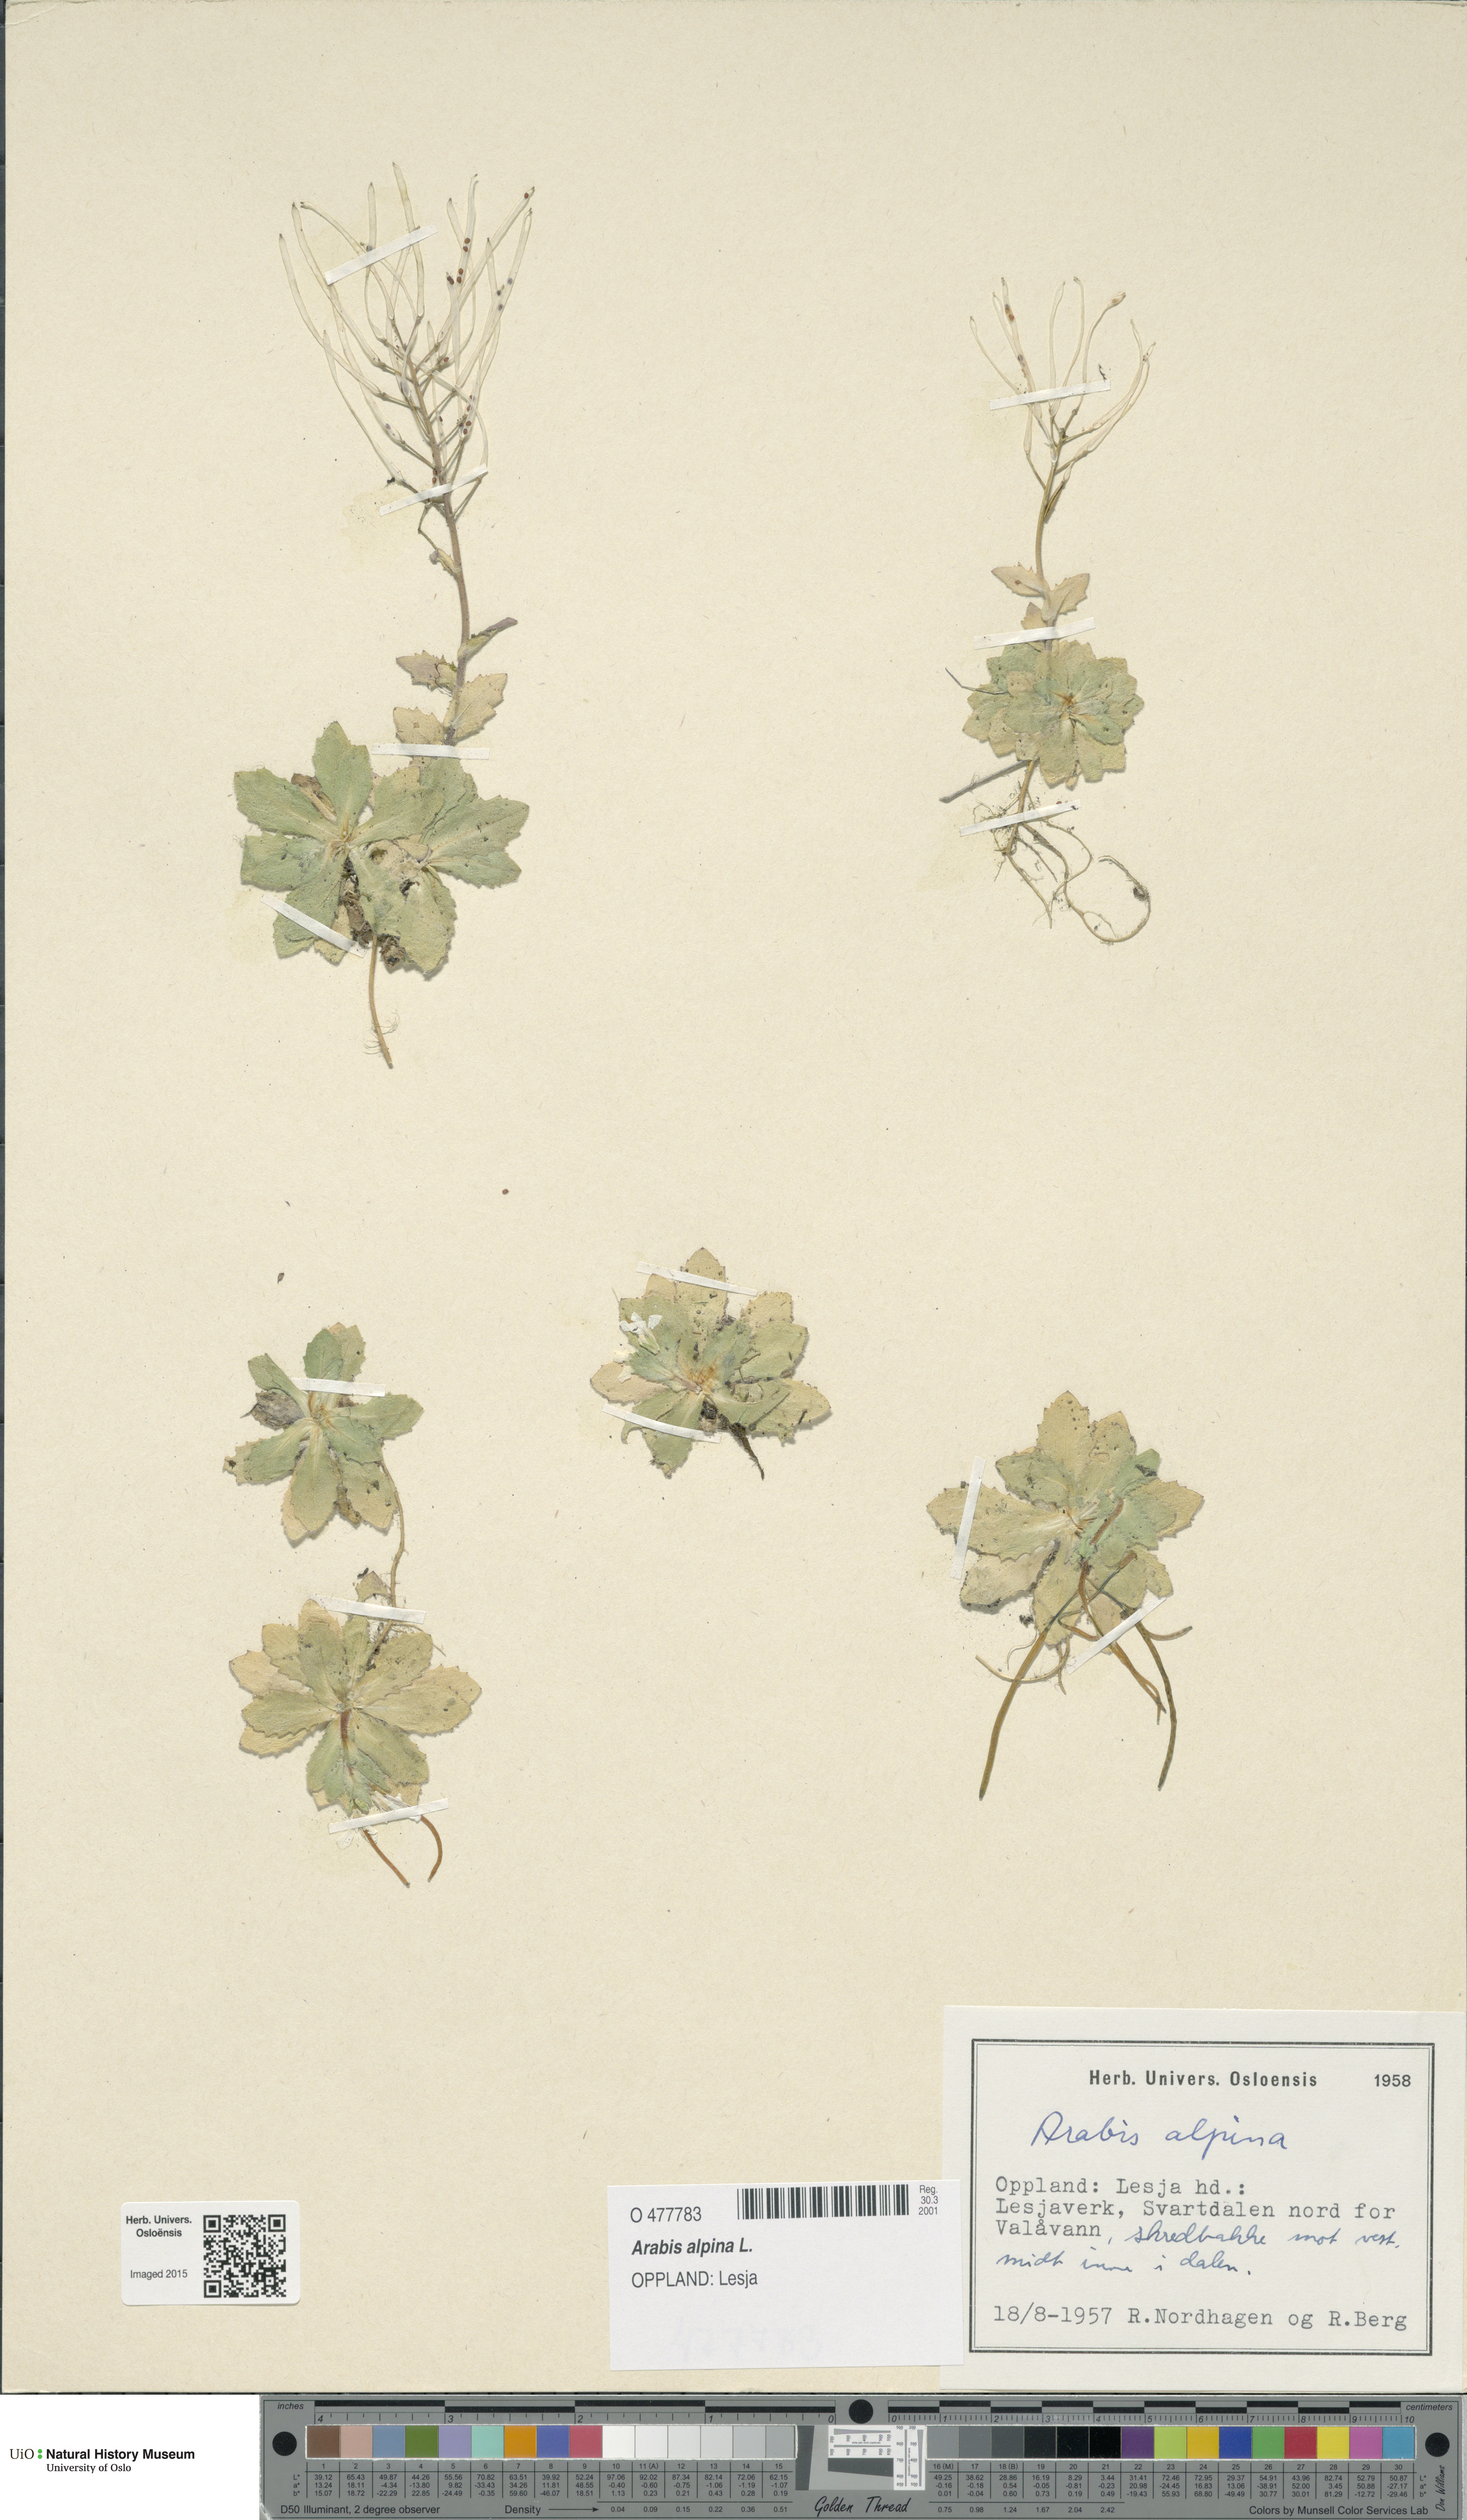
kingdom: Plantae
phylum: Tracheophyta
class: Magnoliopsida
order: Brassicales
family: Brassicaceae
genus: Arabis
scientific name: Arabis alpina
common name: Alpine rock-cress
